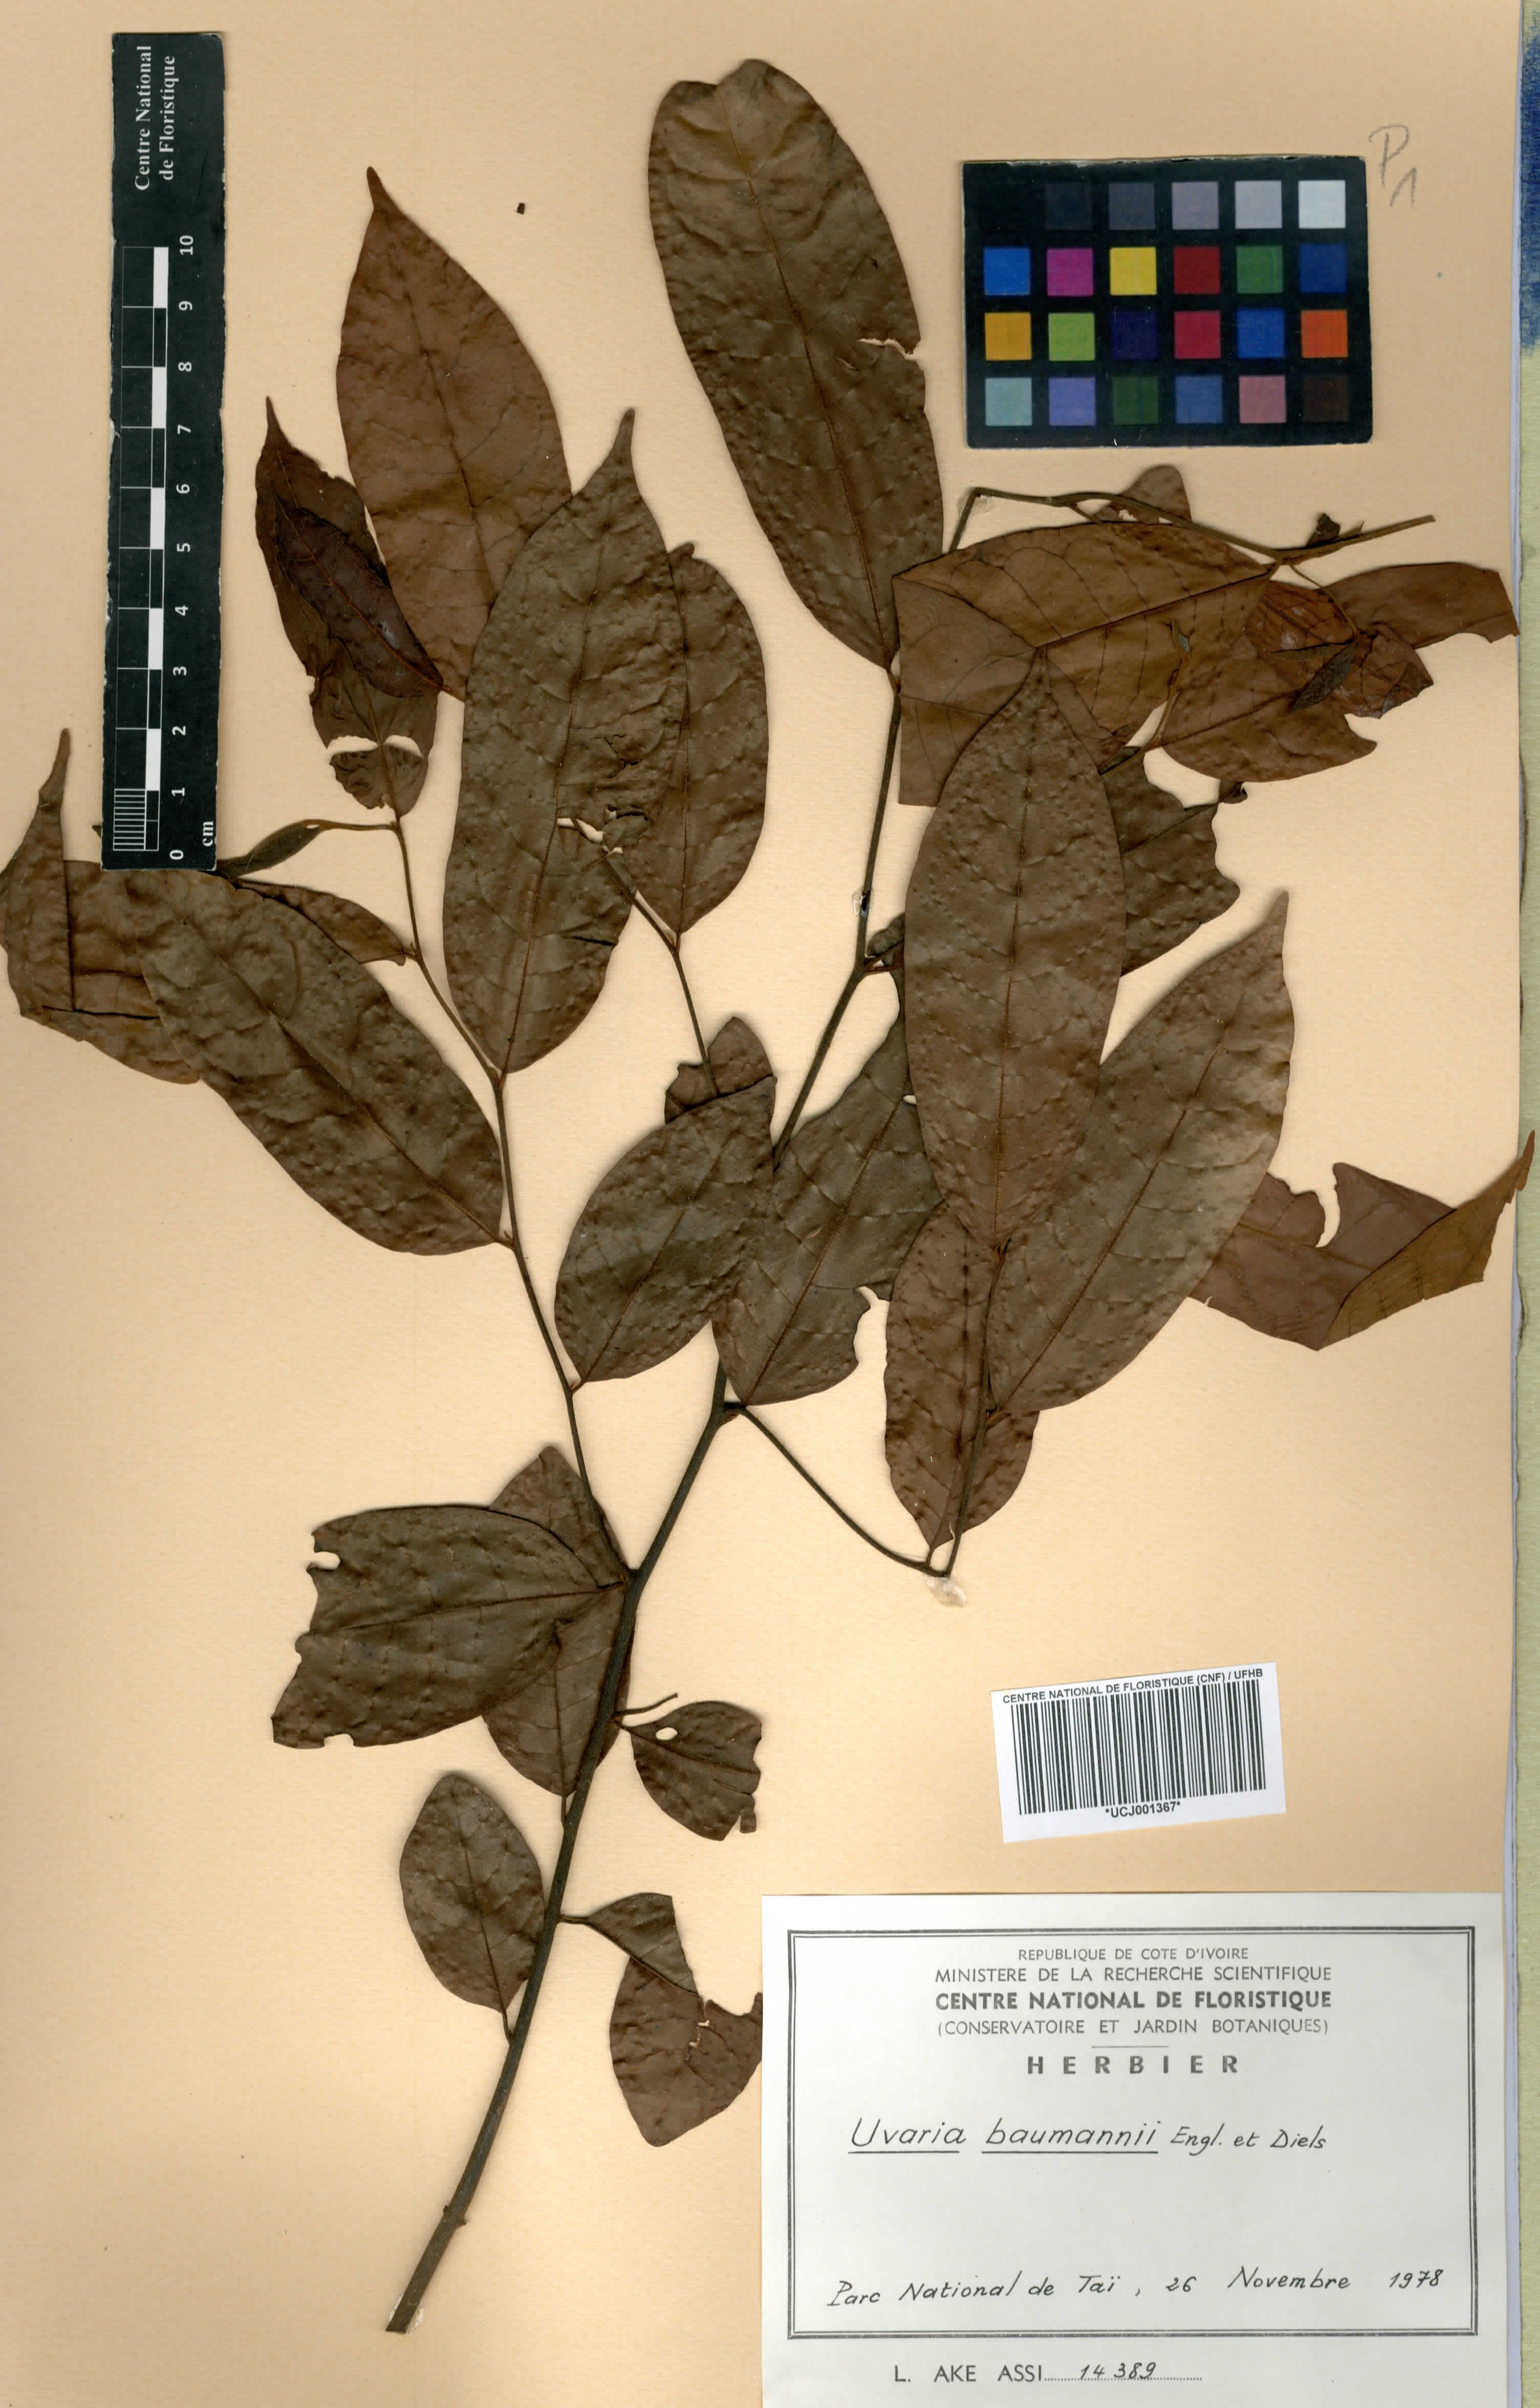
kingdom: Plantae
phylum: Tracheophyta
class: Magnoliopsida
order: Magnoliales
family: Annonaceae
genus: Uvaria
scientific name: Uvaria baumannii
